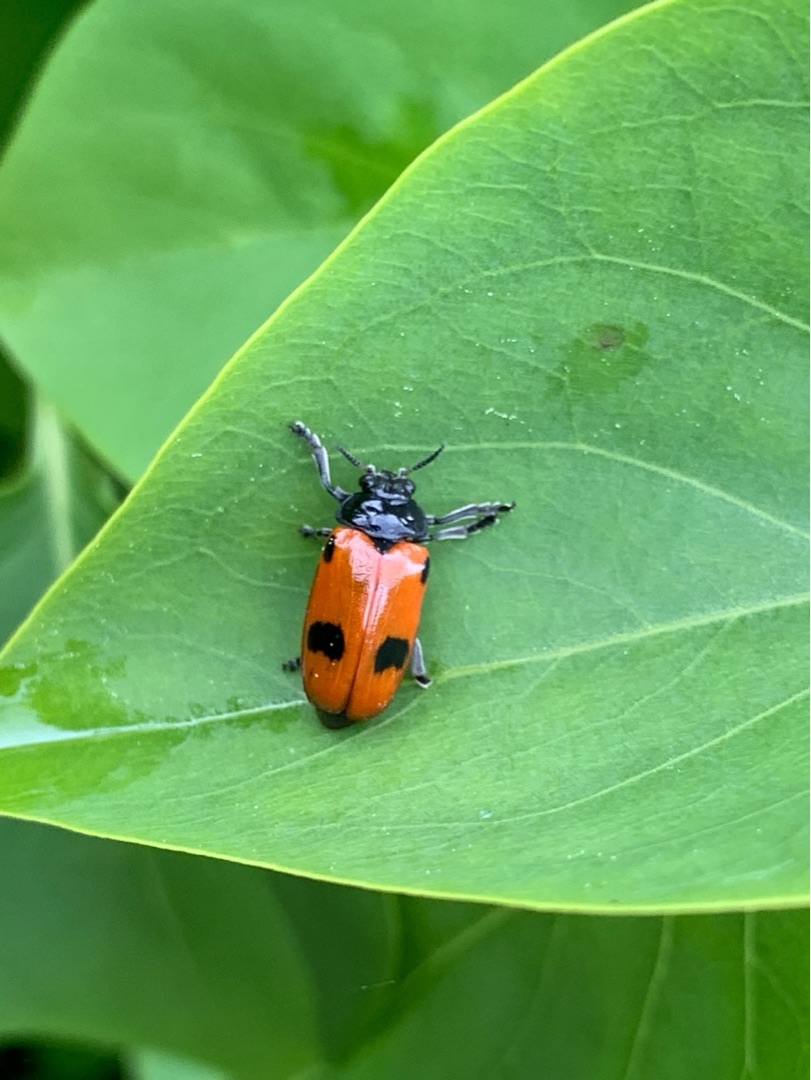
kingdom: Animalia
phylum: Arthropoda
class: Insecta
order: Coleoptera
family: Chrysomelidae
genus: Clytra
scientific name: Clytra quadripunctata
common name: Myrebladbille
